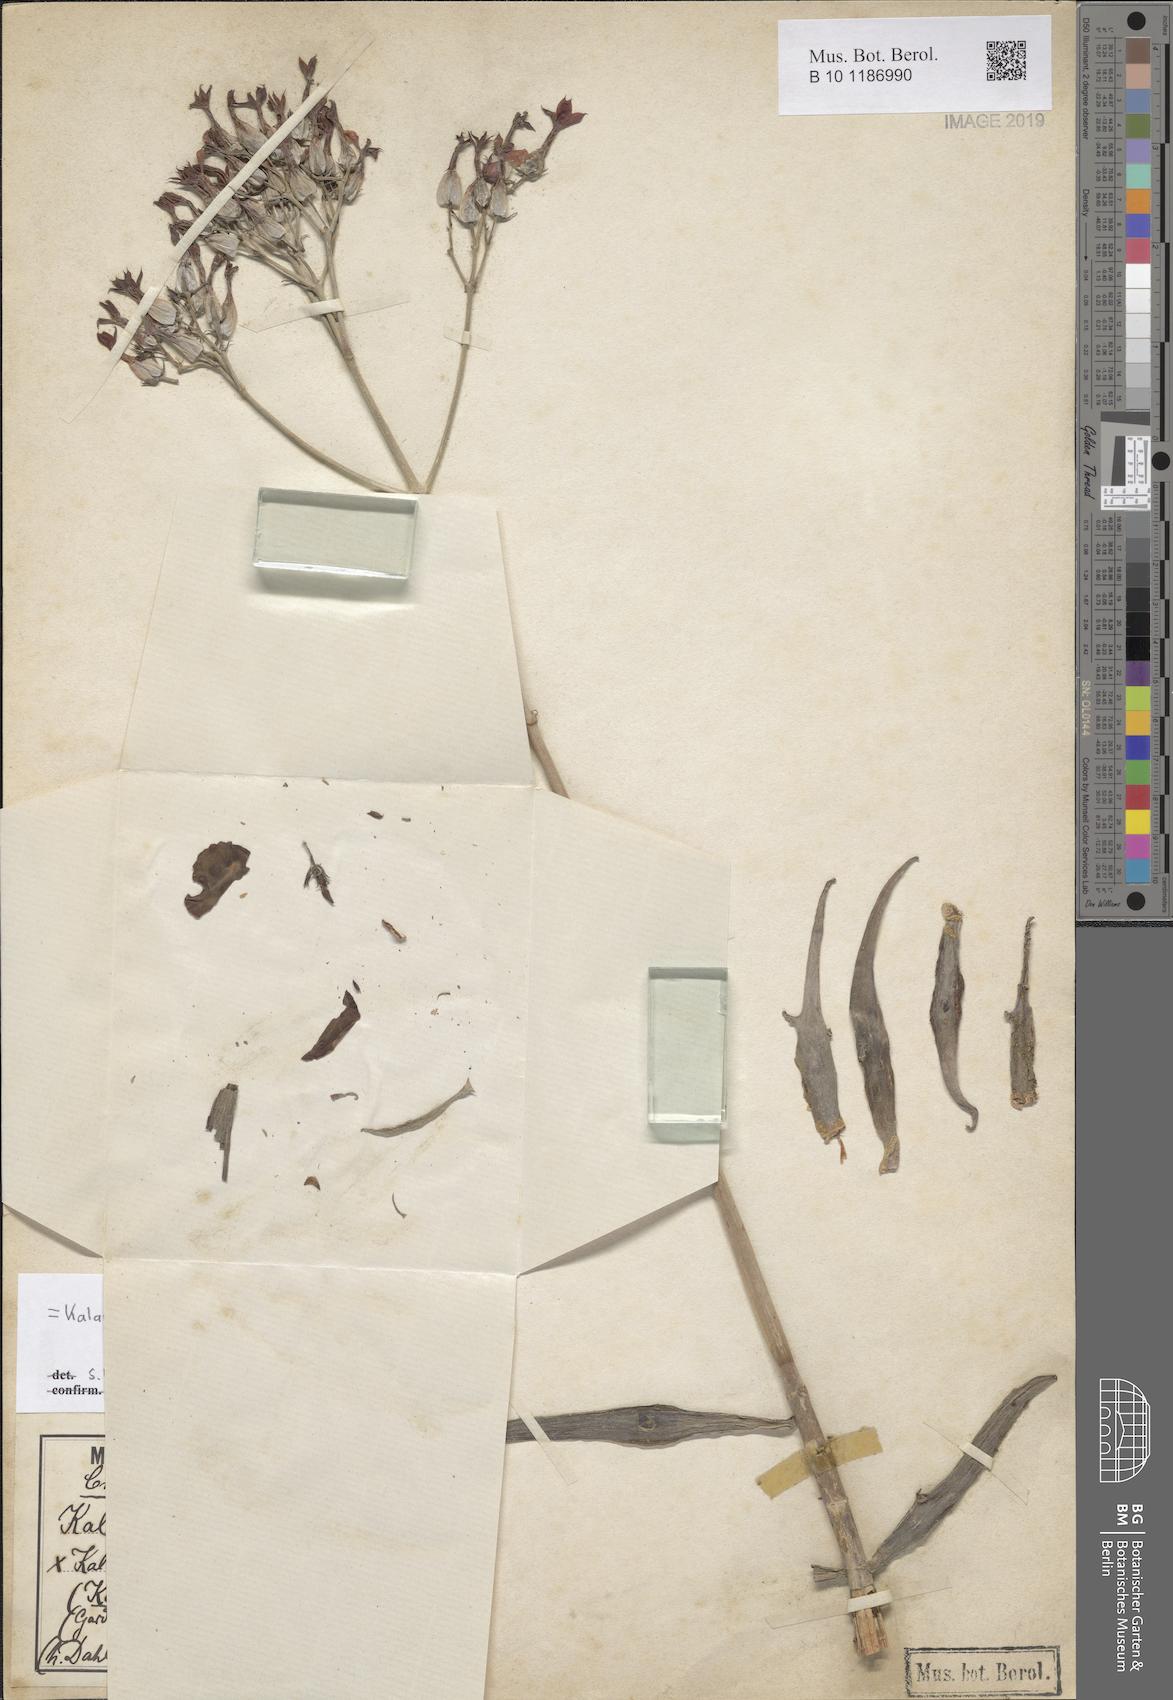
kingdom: Plantae
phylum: Tracheophyta
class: Magnoliopsida
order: Saxifragales
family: Crassulaceae
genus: Kalanchoe
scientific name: Kalanchoe kewensis
